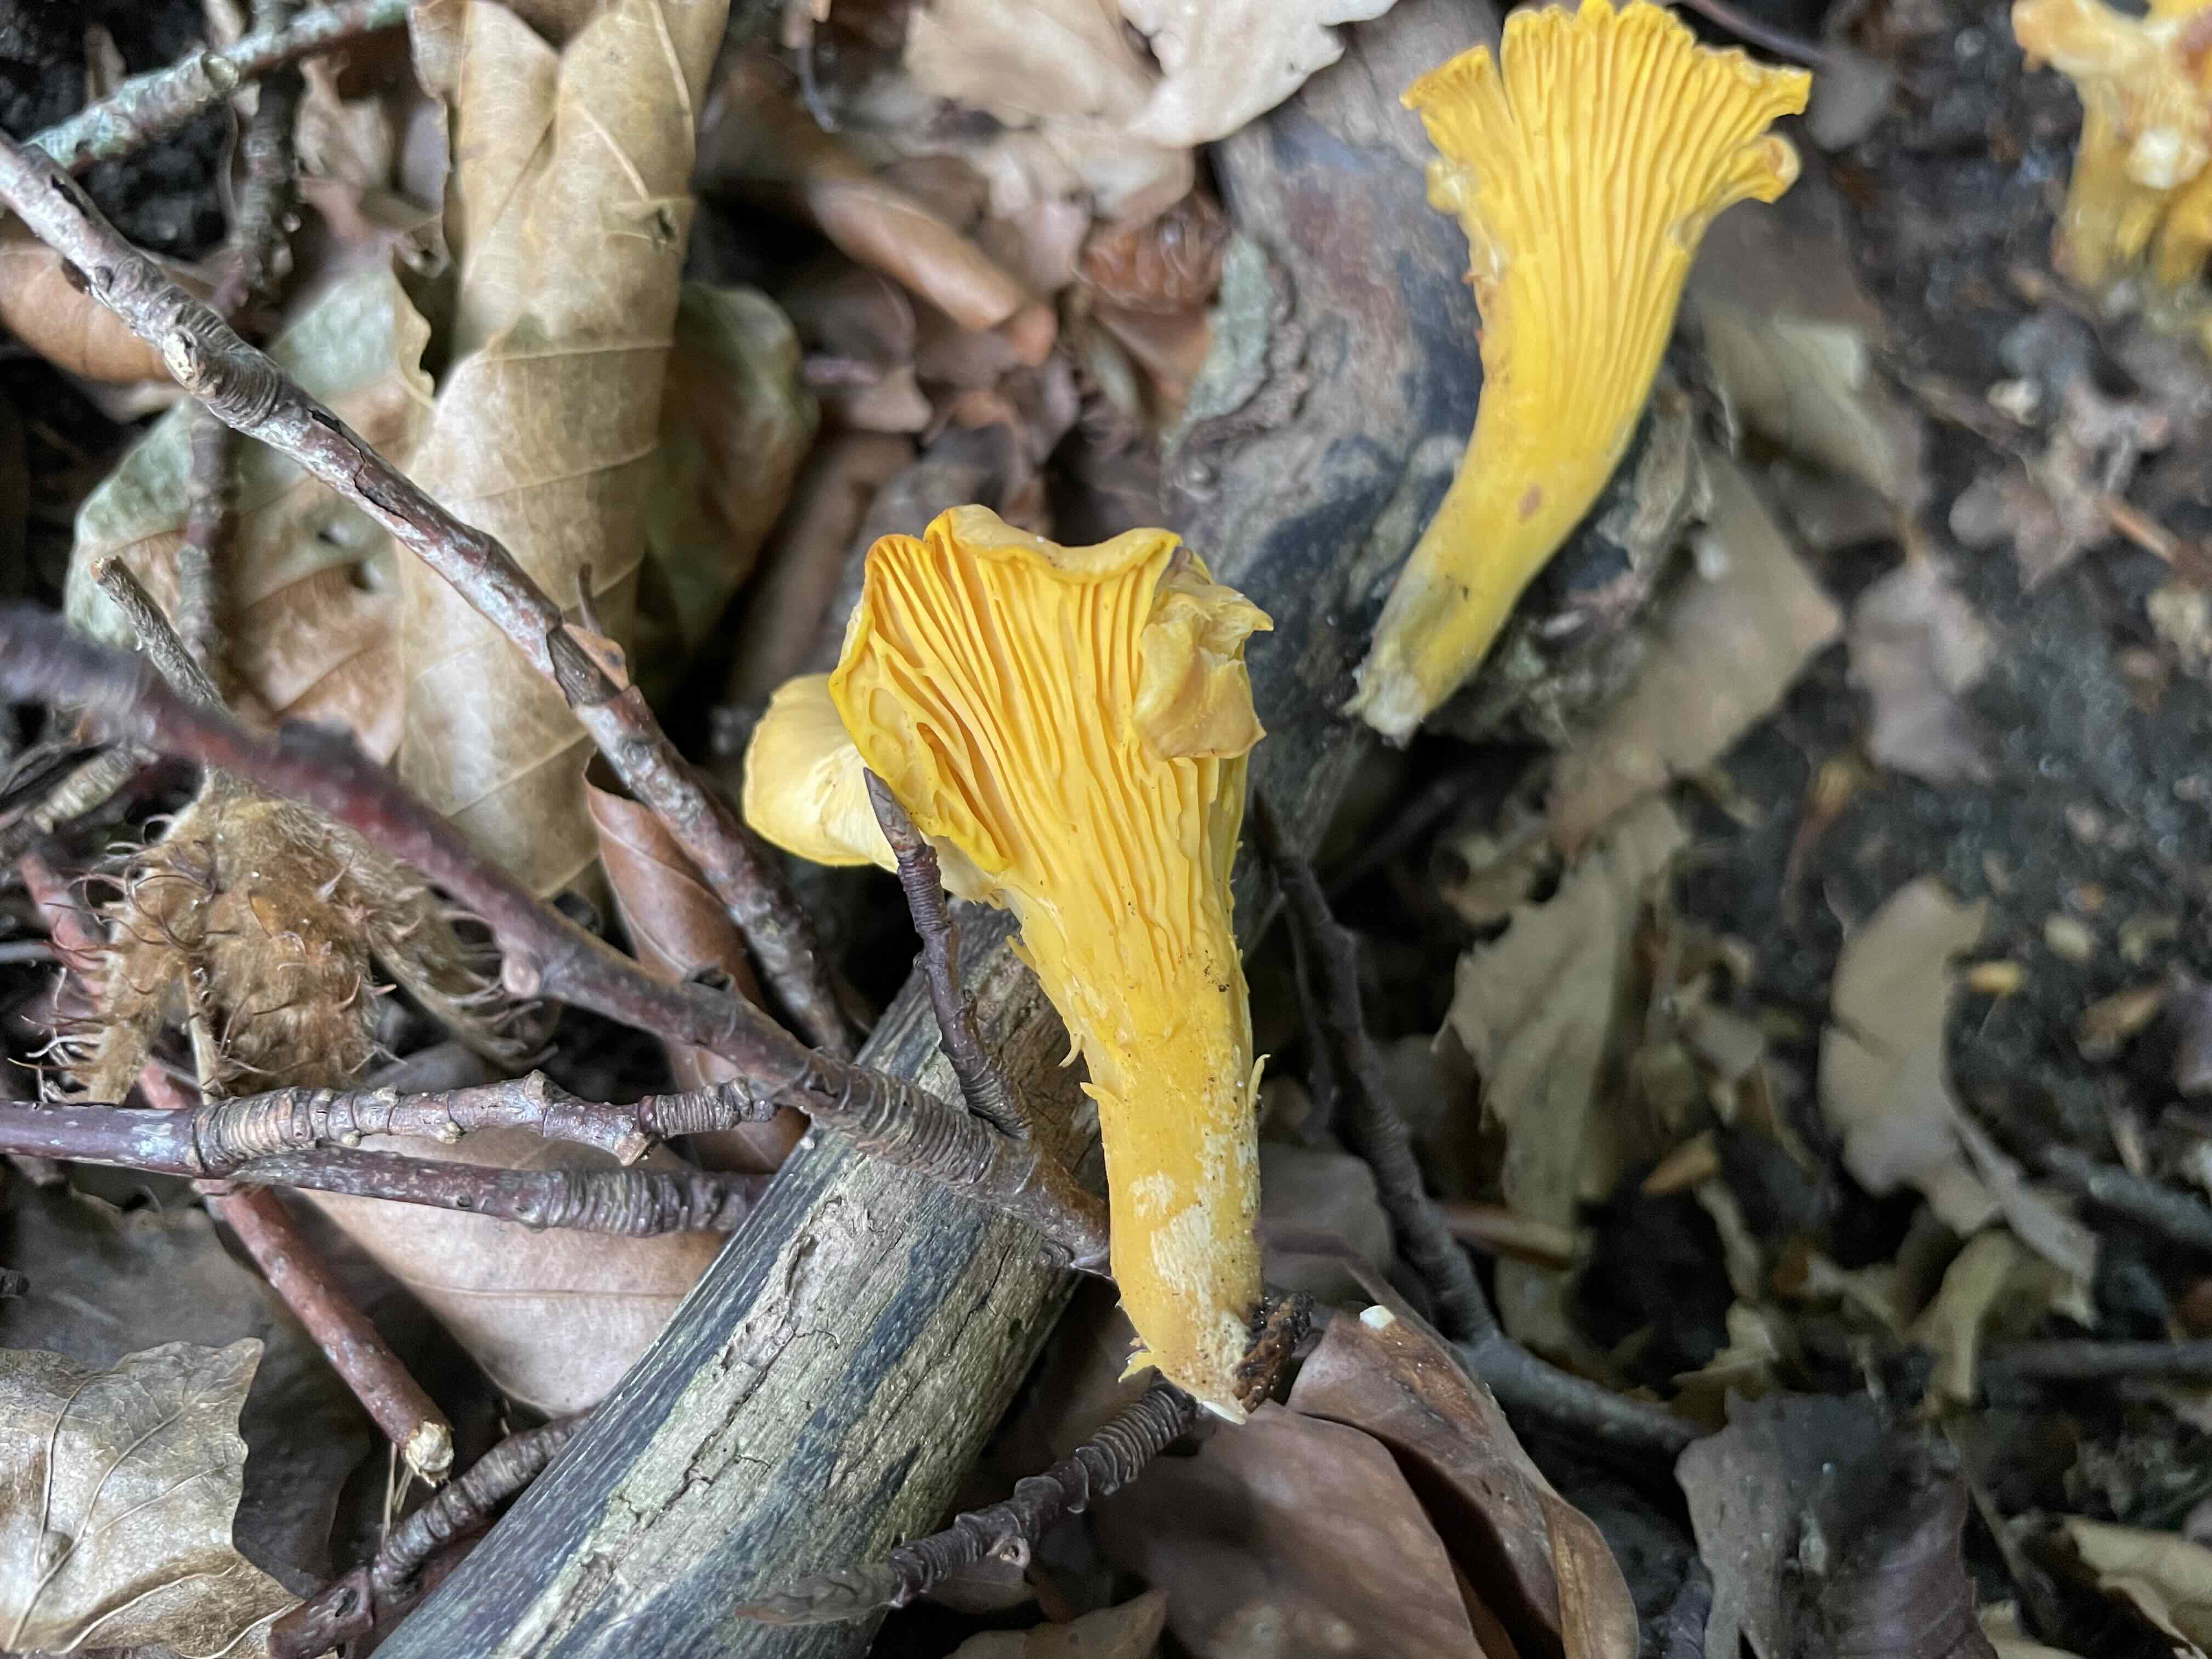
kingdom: Fungi
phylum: Basidiomycota
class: Agaricomycetes
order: Cantharellales
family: Hydnaceae
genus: Cantharellus
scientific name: Cantharellus cibarius
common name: almindelig kantarel
